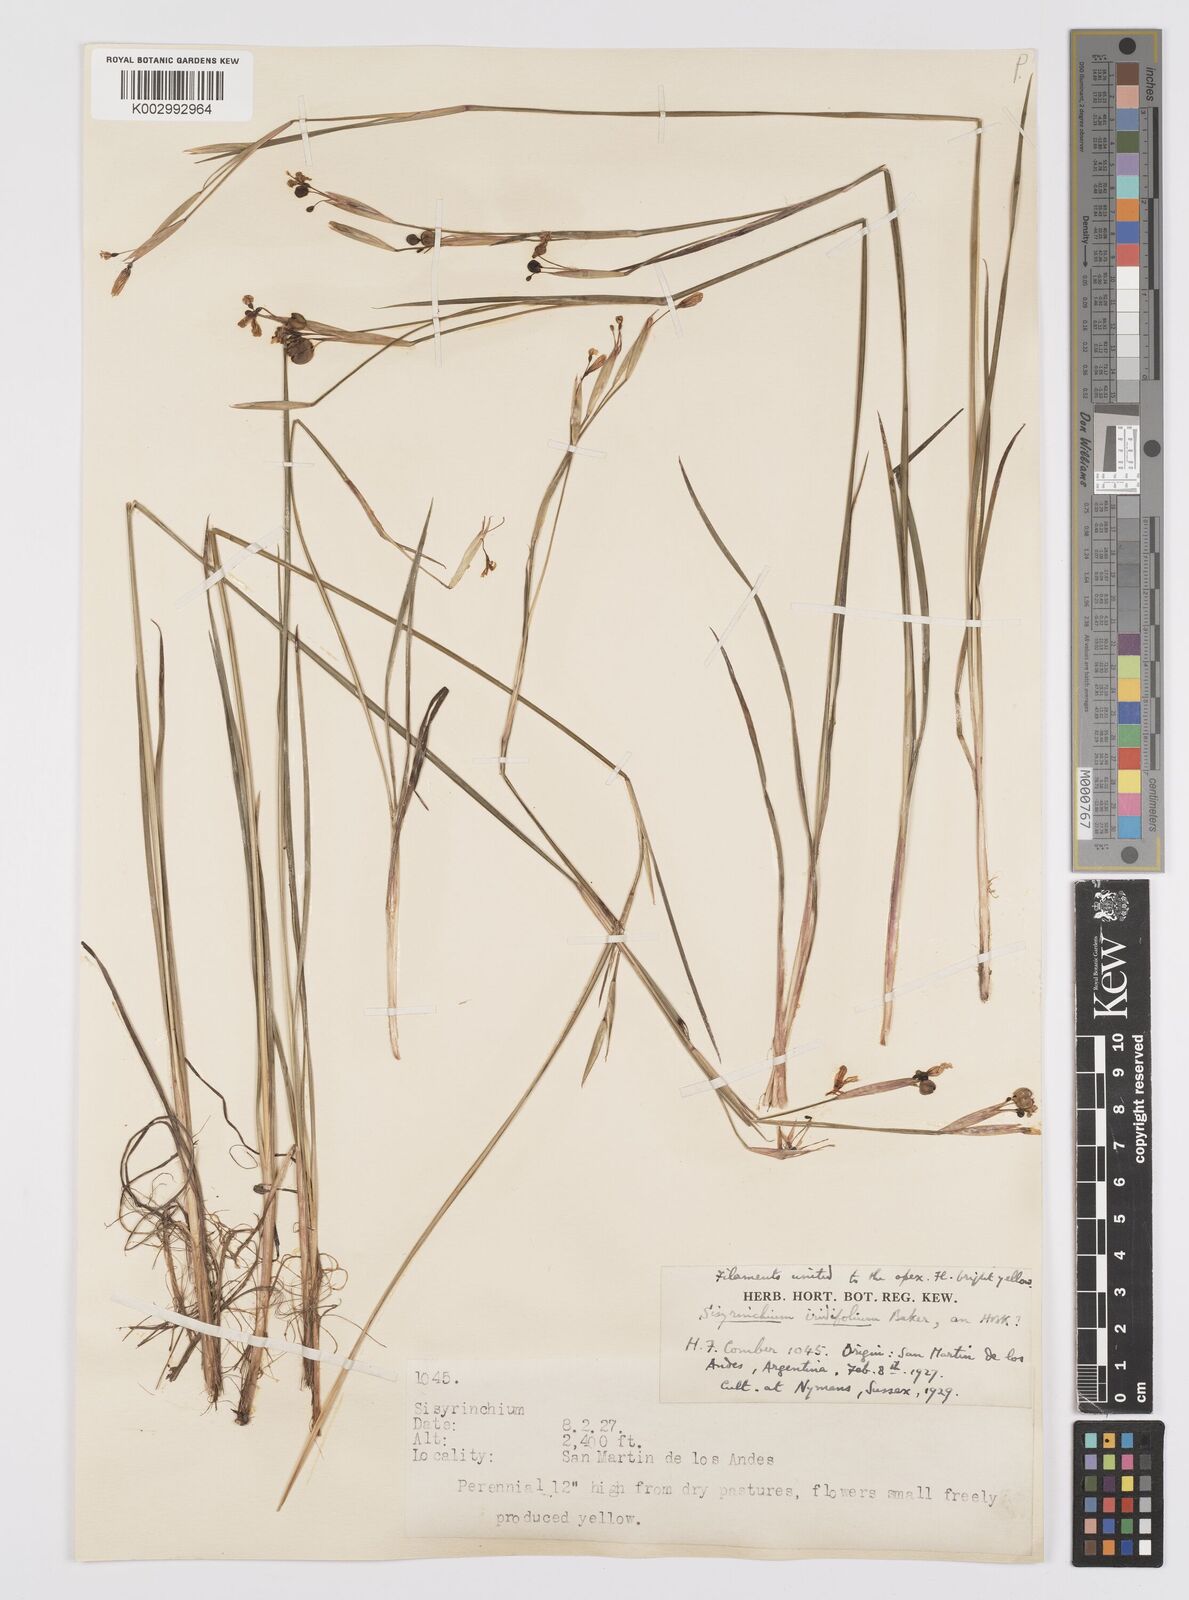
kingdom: Plantae
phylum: Tracheophyta
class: Liliopsida
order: Asparagales
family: Iridaceae
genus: Sisyrinchium
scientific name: Sisyrinchium pachyrhizum
